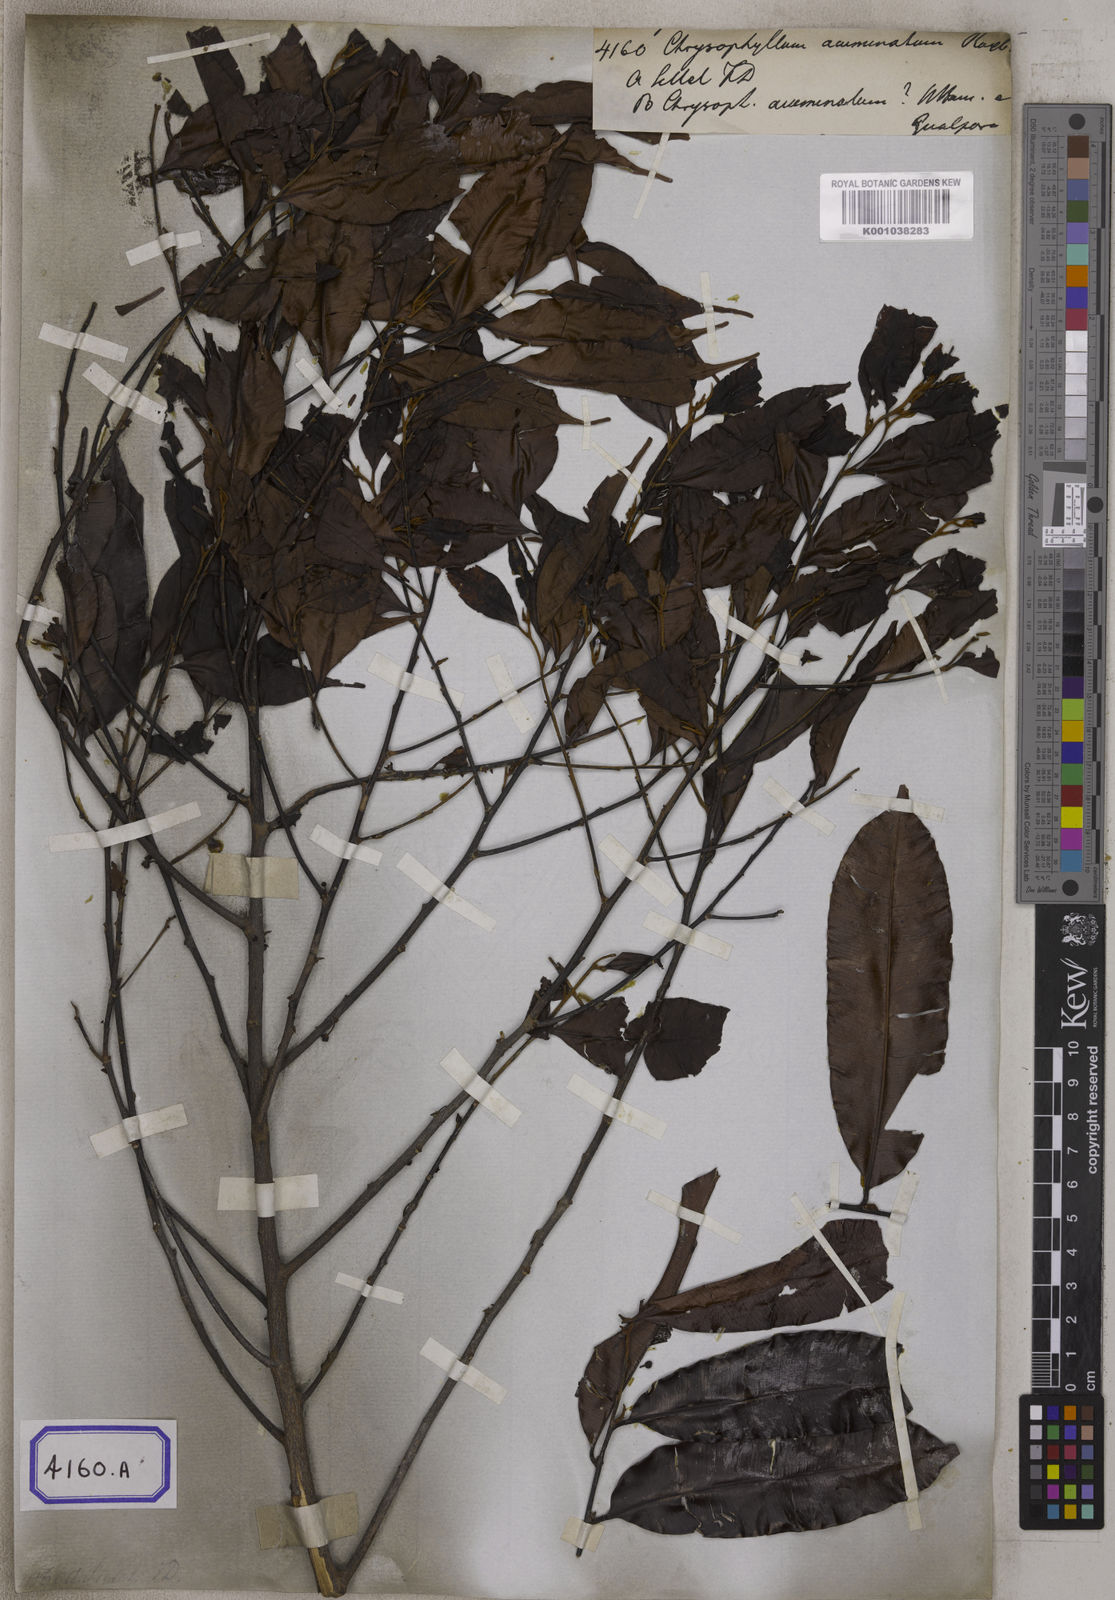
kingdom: Plantae
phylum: Tracheophyta
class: Magnoliopsida
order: Ericales
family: Sapotaceae
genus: Donella
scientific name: Donella lanceolata
